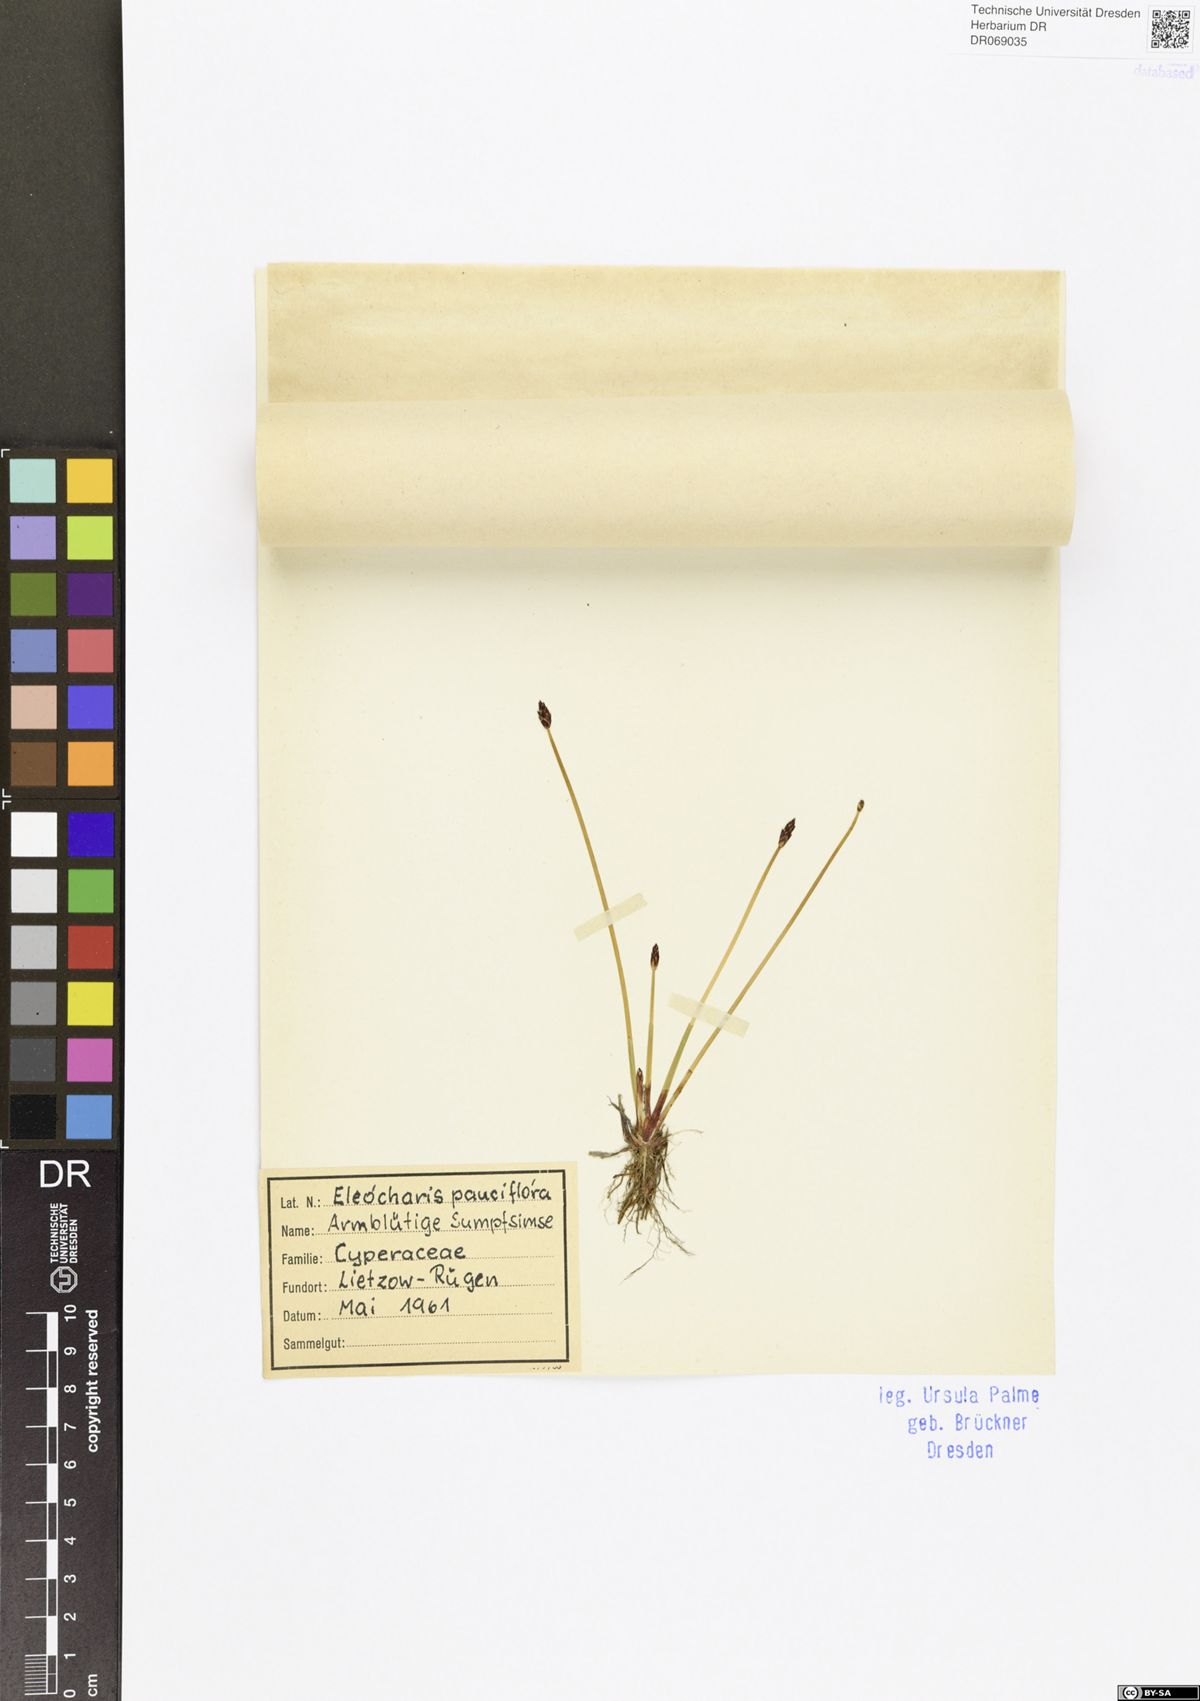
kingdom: Plantae
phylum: Tracheophyta
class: Liliopsida
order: Poales
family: Cyperaceae
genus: Eleocharis
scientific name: Eleocharis quinqueflora
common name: Few-flowered spike-rush
